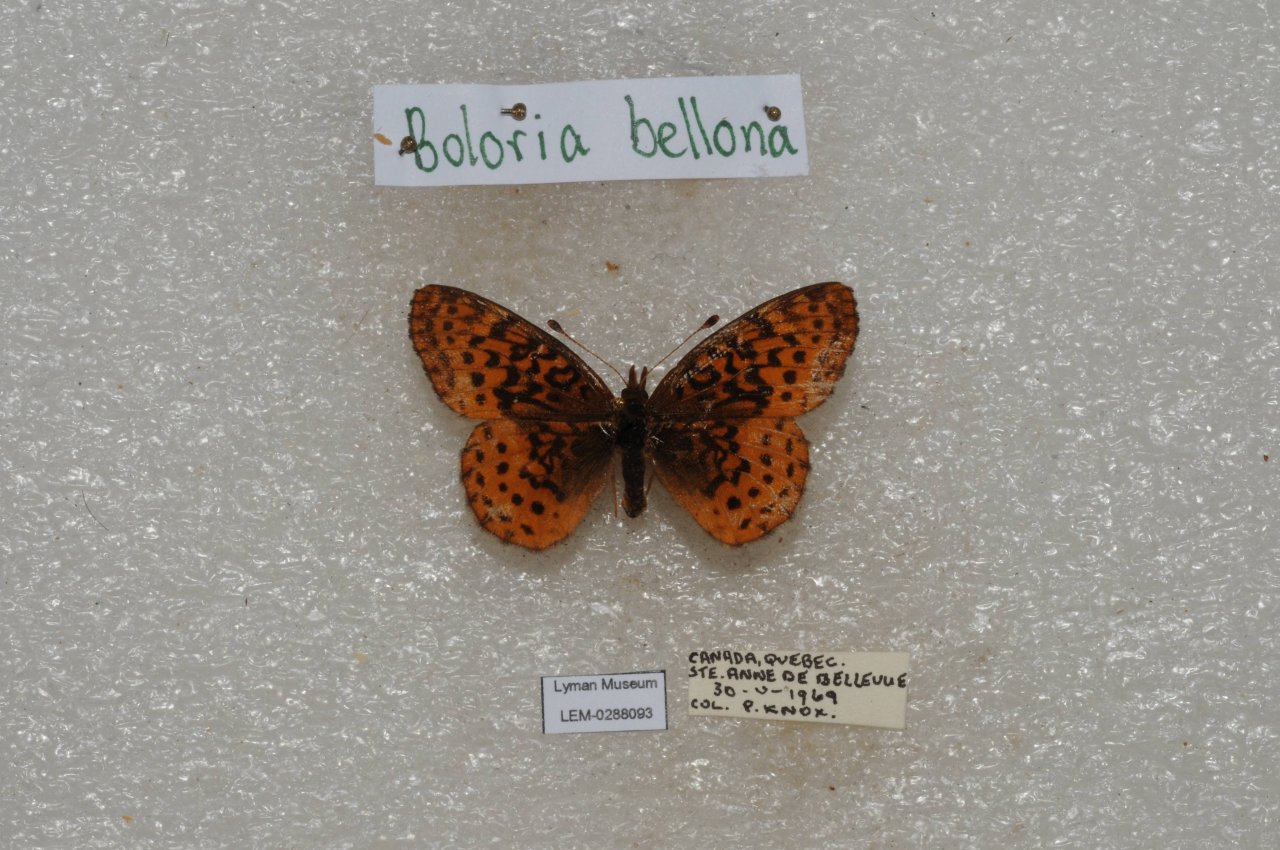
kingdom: Animalia
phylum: Arthropoda
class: Insecta
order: Lepidoptera
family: Nymphalidae
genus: Clossiana
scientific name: Clossiana toddi
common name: Meadow Fritillary
